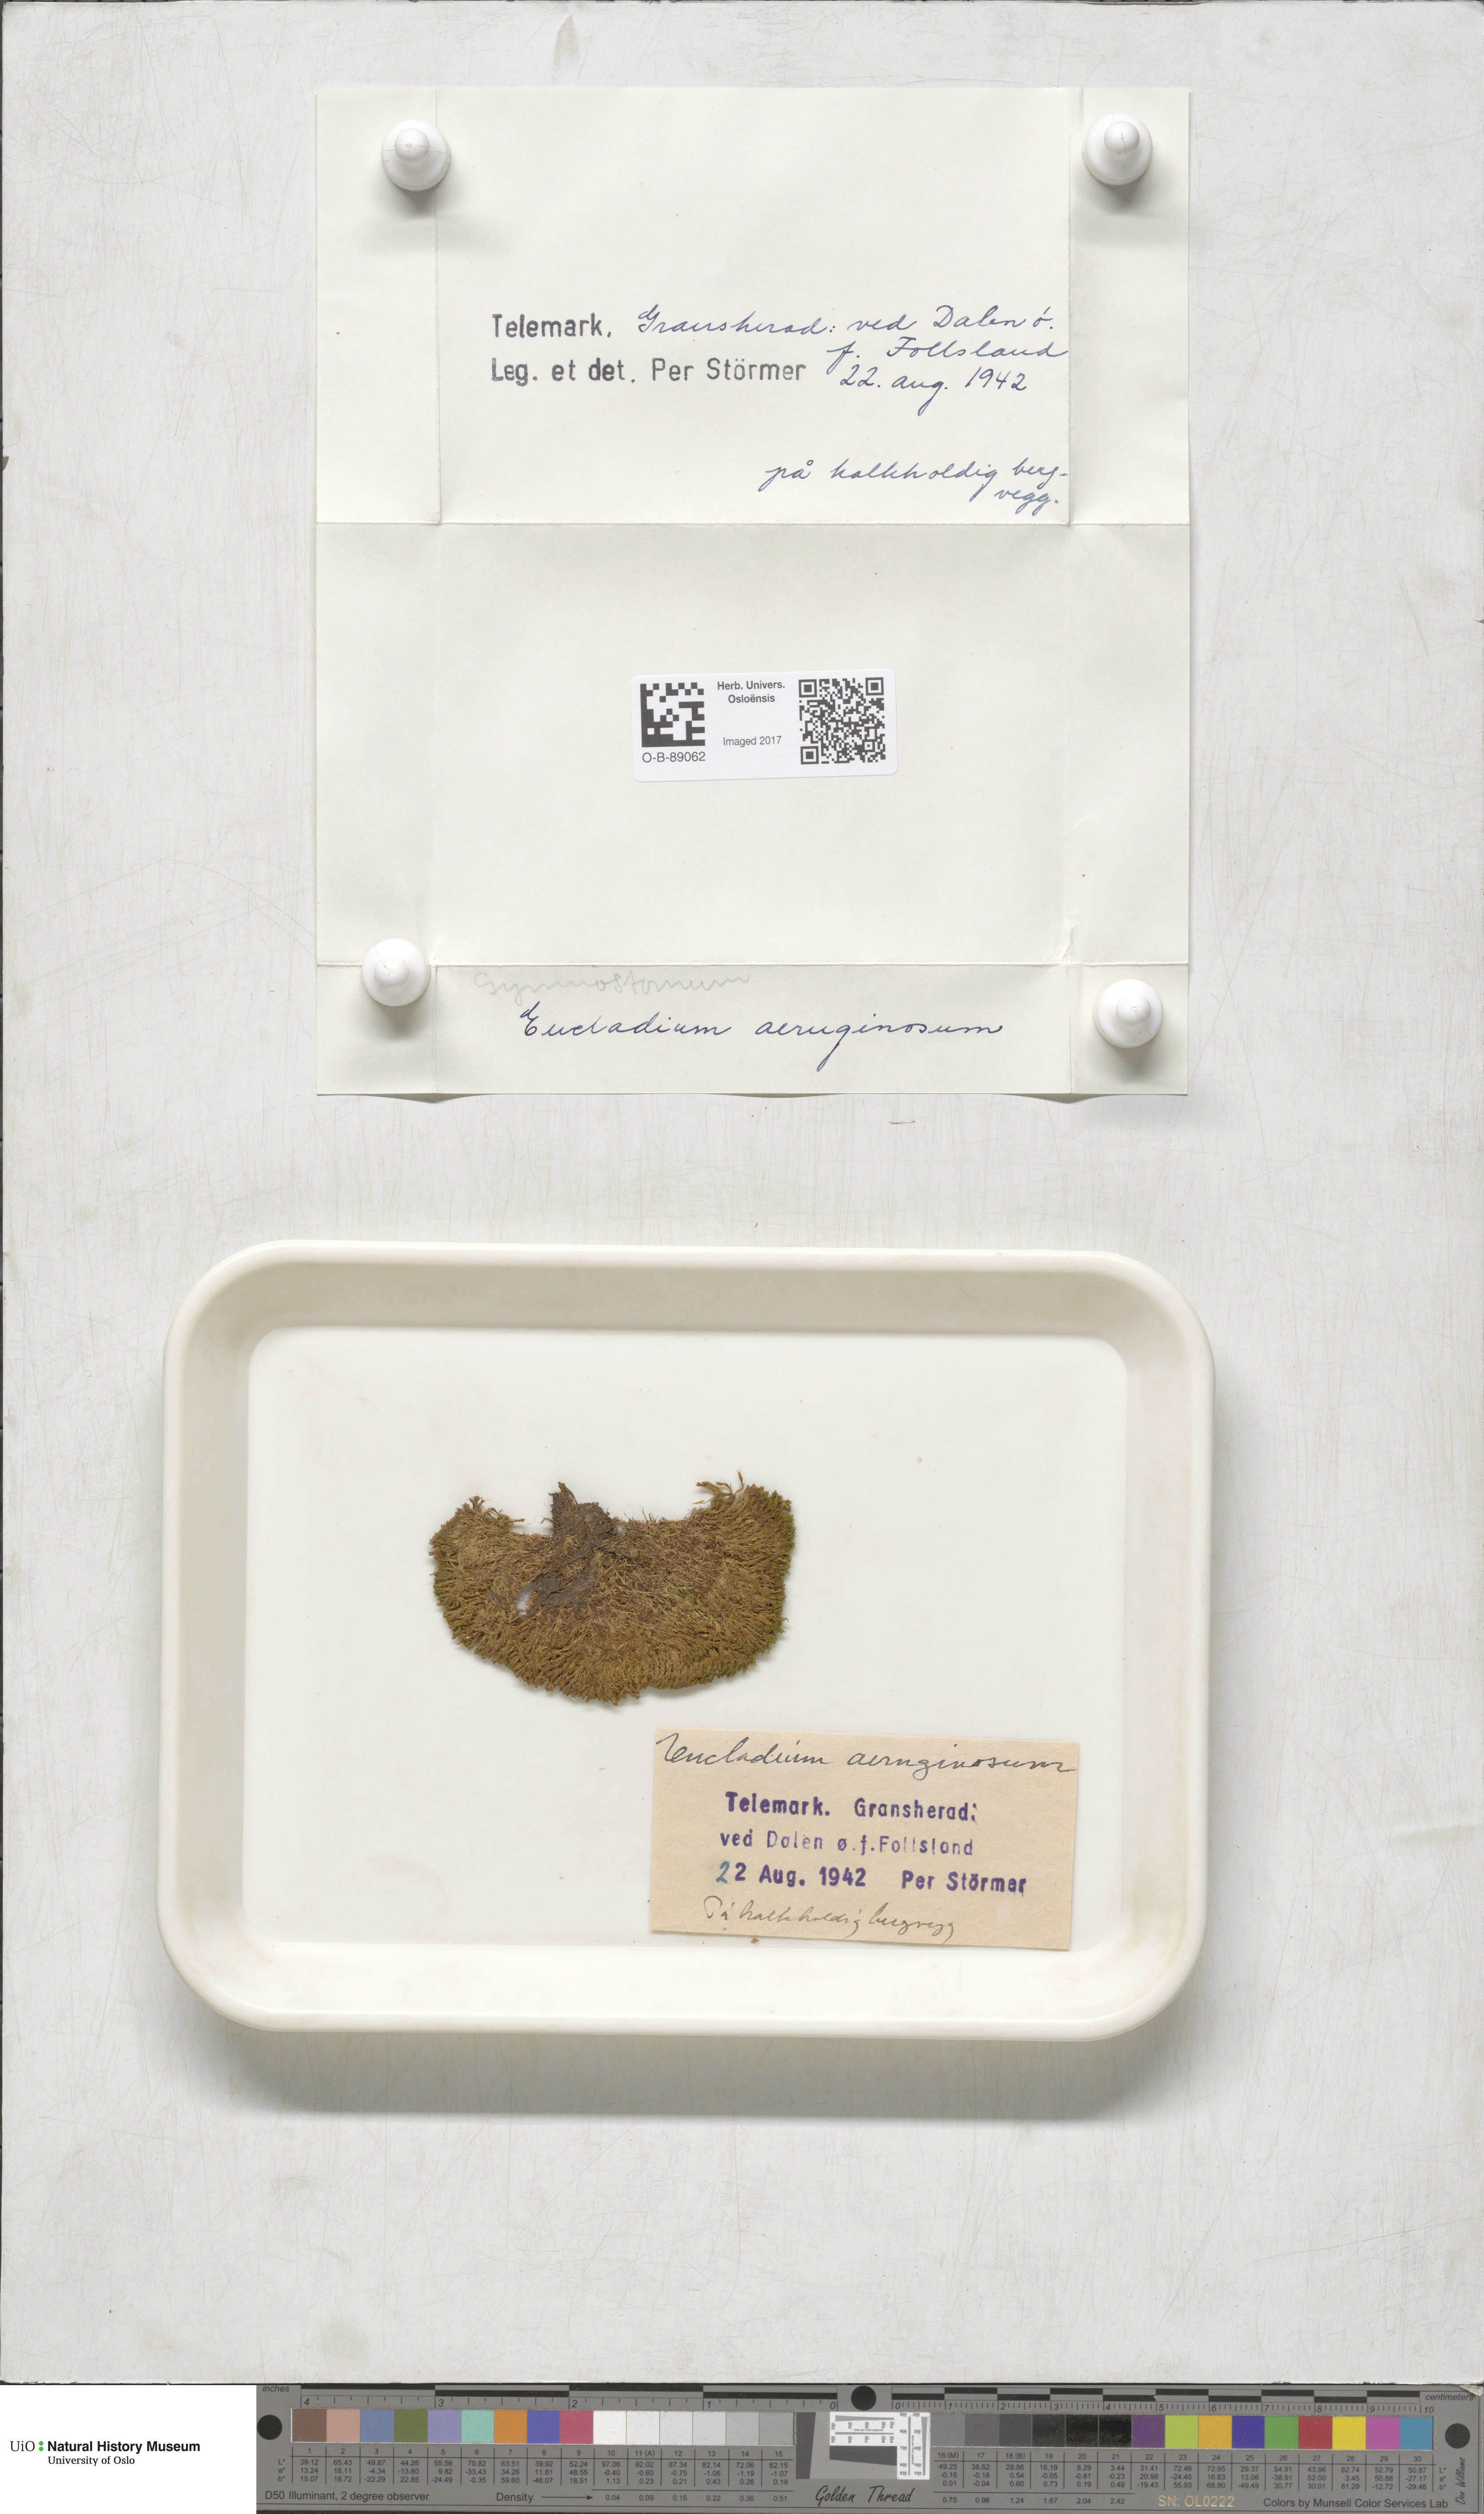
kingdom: Plantae
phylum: Bryophyta
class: Bryopsida
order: Pottiales
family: Pottiaceae
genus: Gymnostomum
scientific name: Gymnostomum aeruginosum
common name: Verdigris tufa-moss
